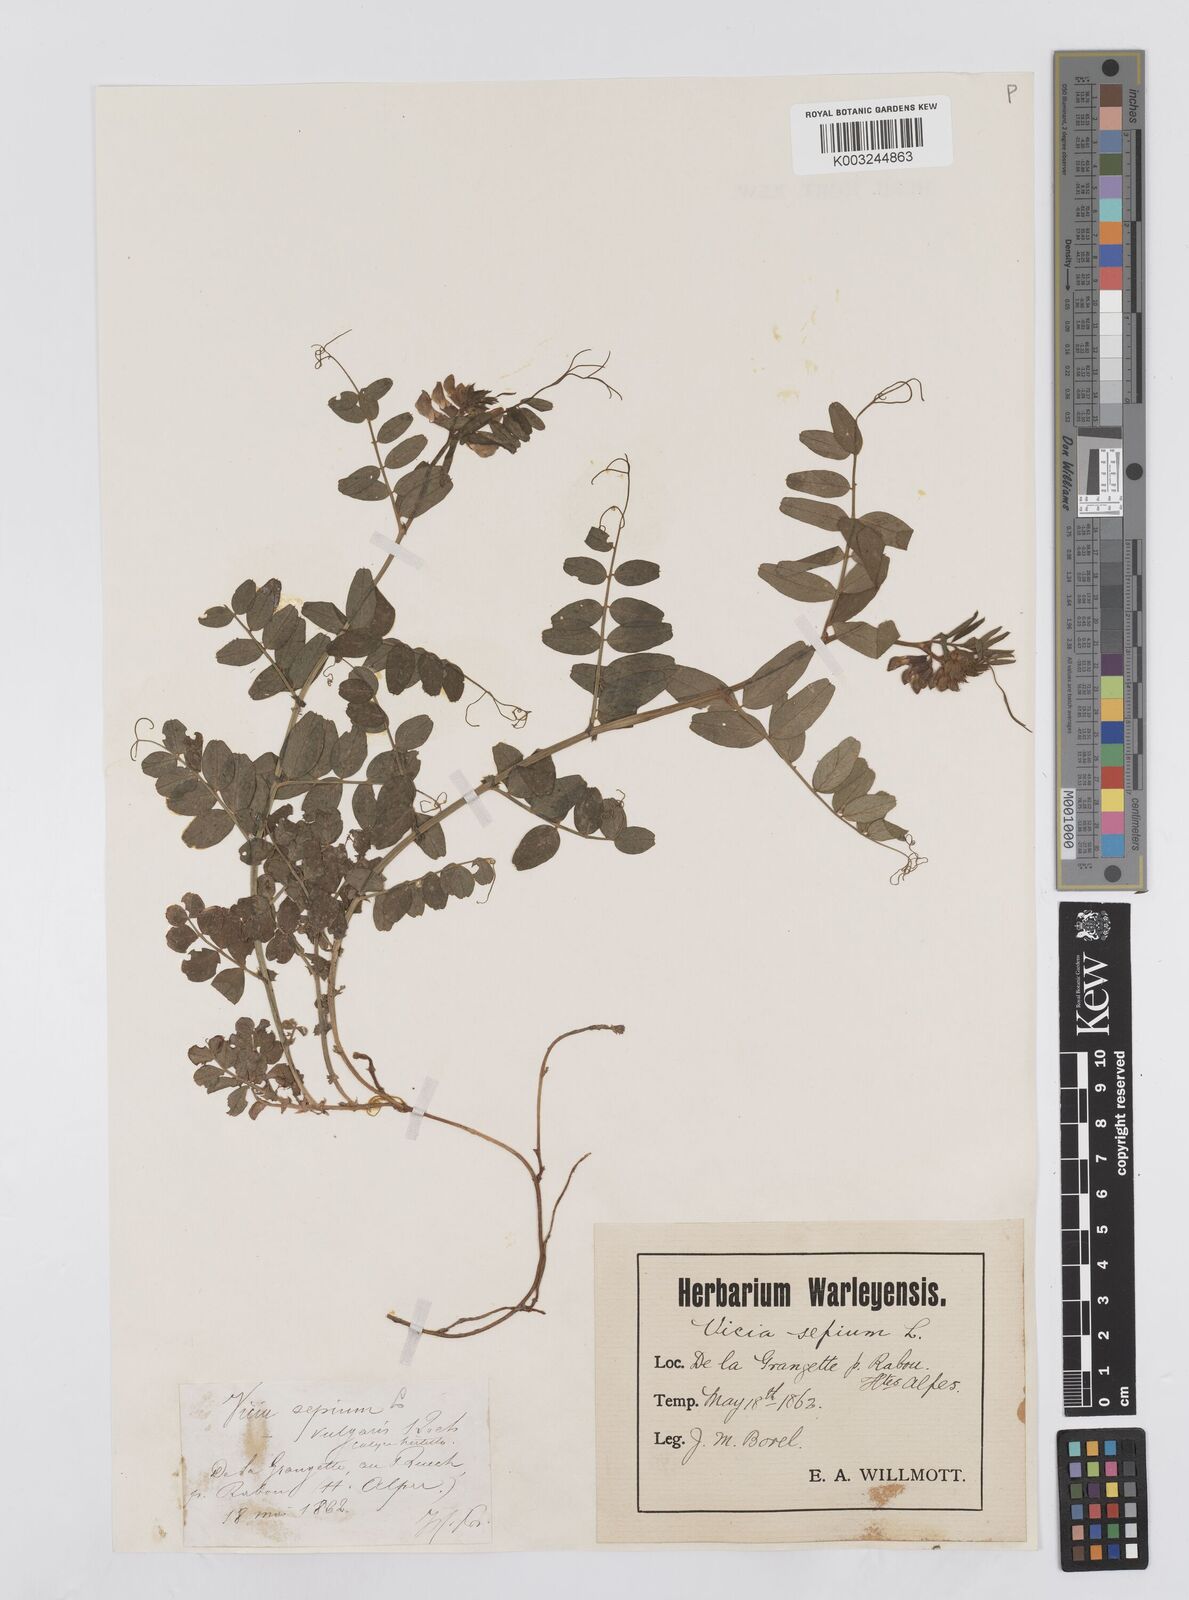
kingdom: Plantae
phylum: Tracheophyta
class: Magnoliopsida
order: Fabales
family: Fabaceae
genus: Vicia
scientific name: Vicia sepium
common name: Bush vetch
